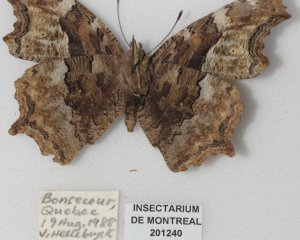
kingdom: Animalia
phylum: Arthropoda
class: Insecta
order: Lepidoptera
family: Nymphalidae
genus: Polygonia
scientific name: Polygonia vaualbum
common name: Compton Tortoiseshell
